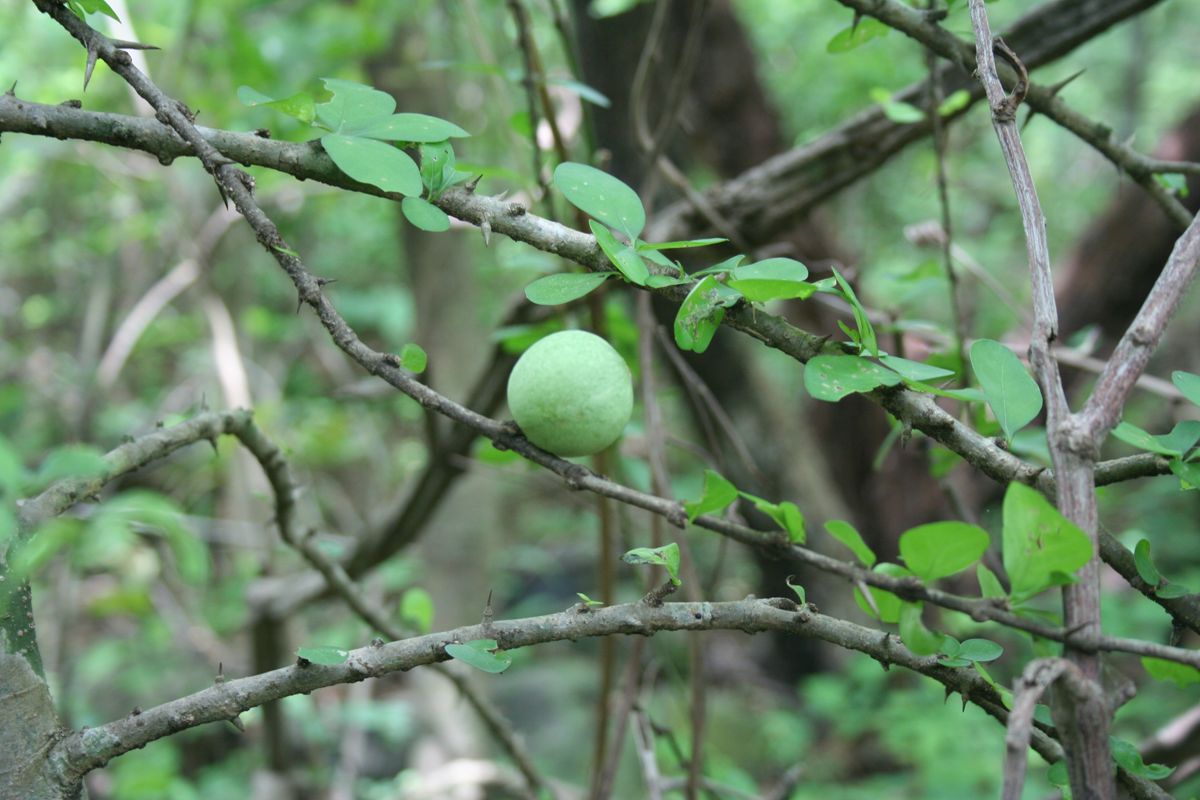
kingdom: Plantae
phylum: Tracheophyta
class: Magnoliopsida
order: Gentianales
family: Rubiaceae
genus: Randia
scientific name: Randia thurberi
